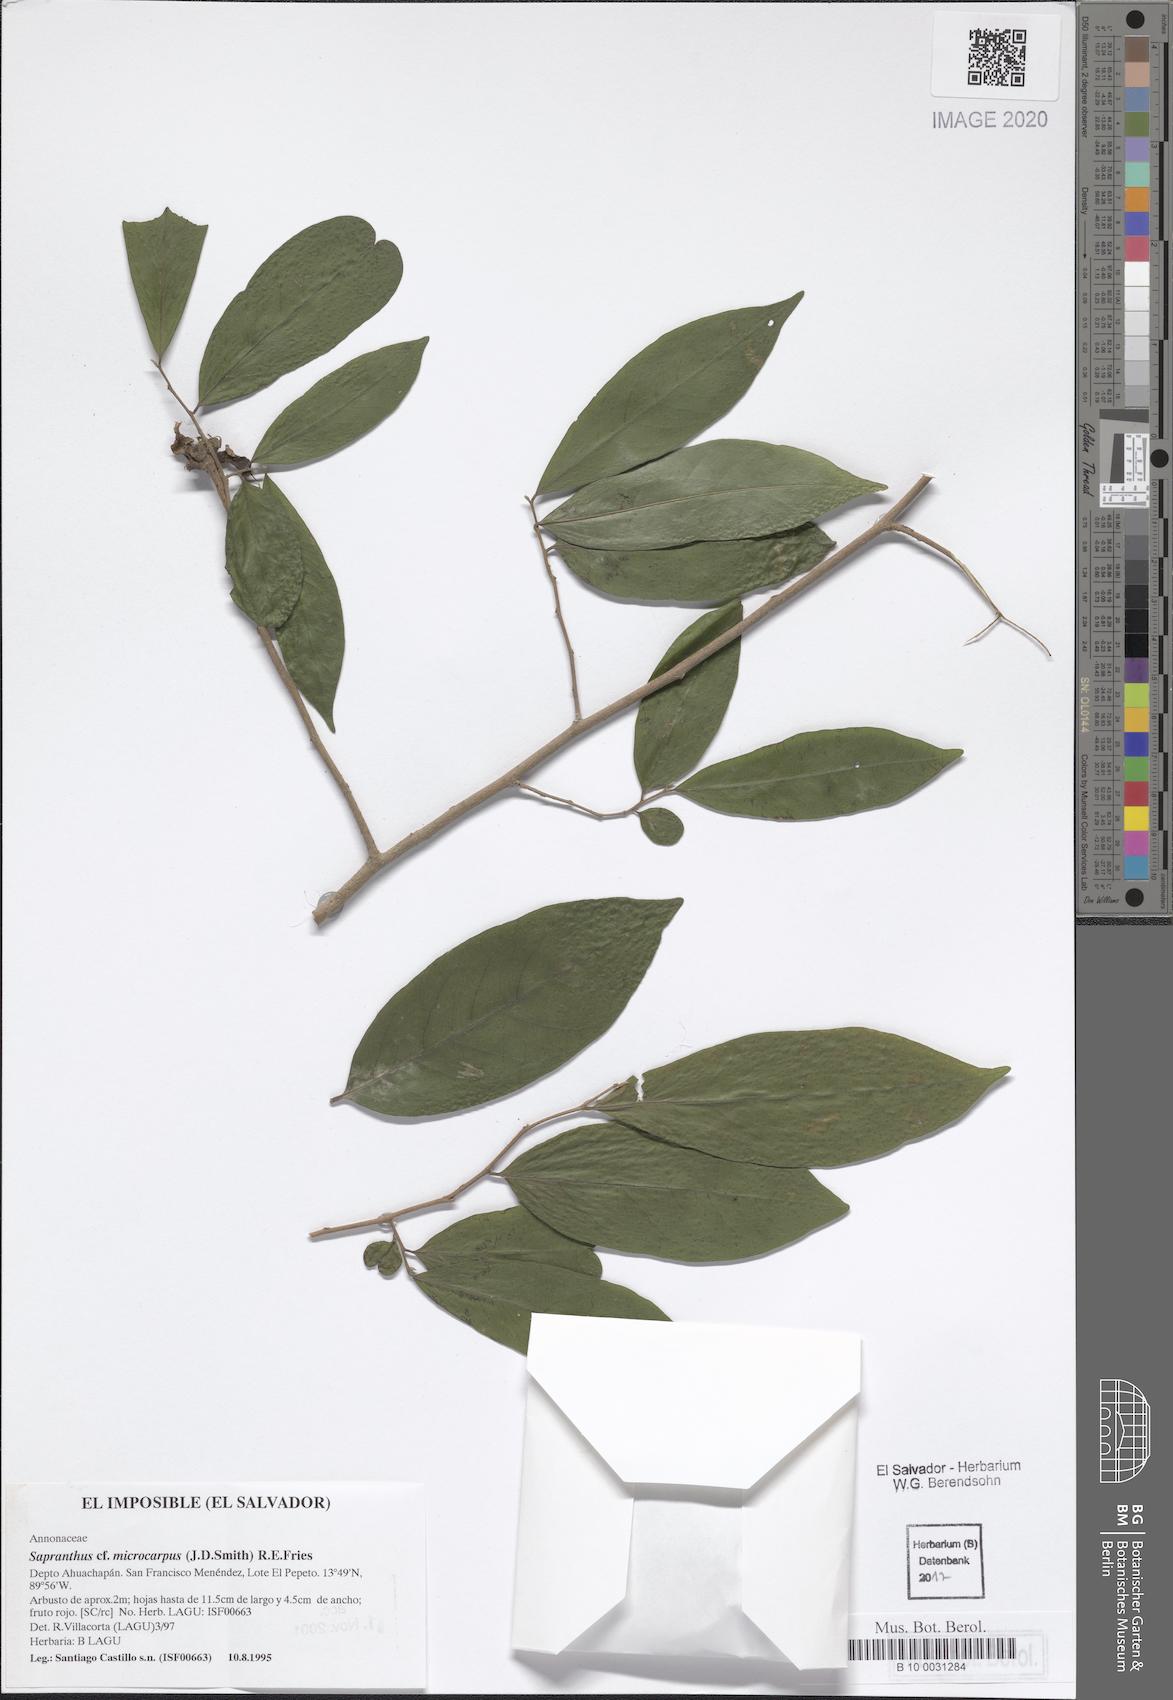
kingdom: Plantae
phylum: Tracheophyta
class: Magnoliopsida
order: Magnoliales
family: Annonaceae
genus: Sapranthus
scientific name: Sapranthus microcarpus
